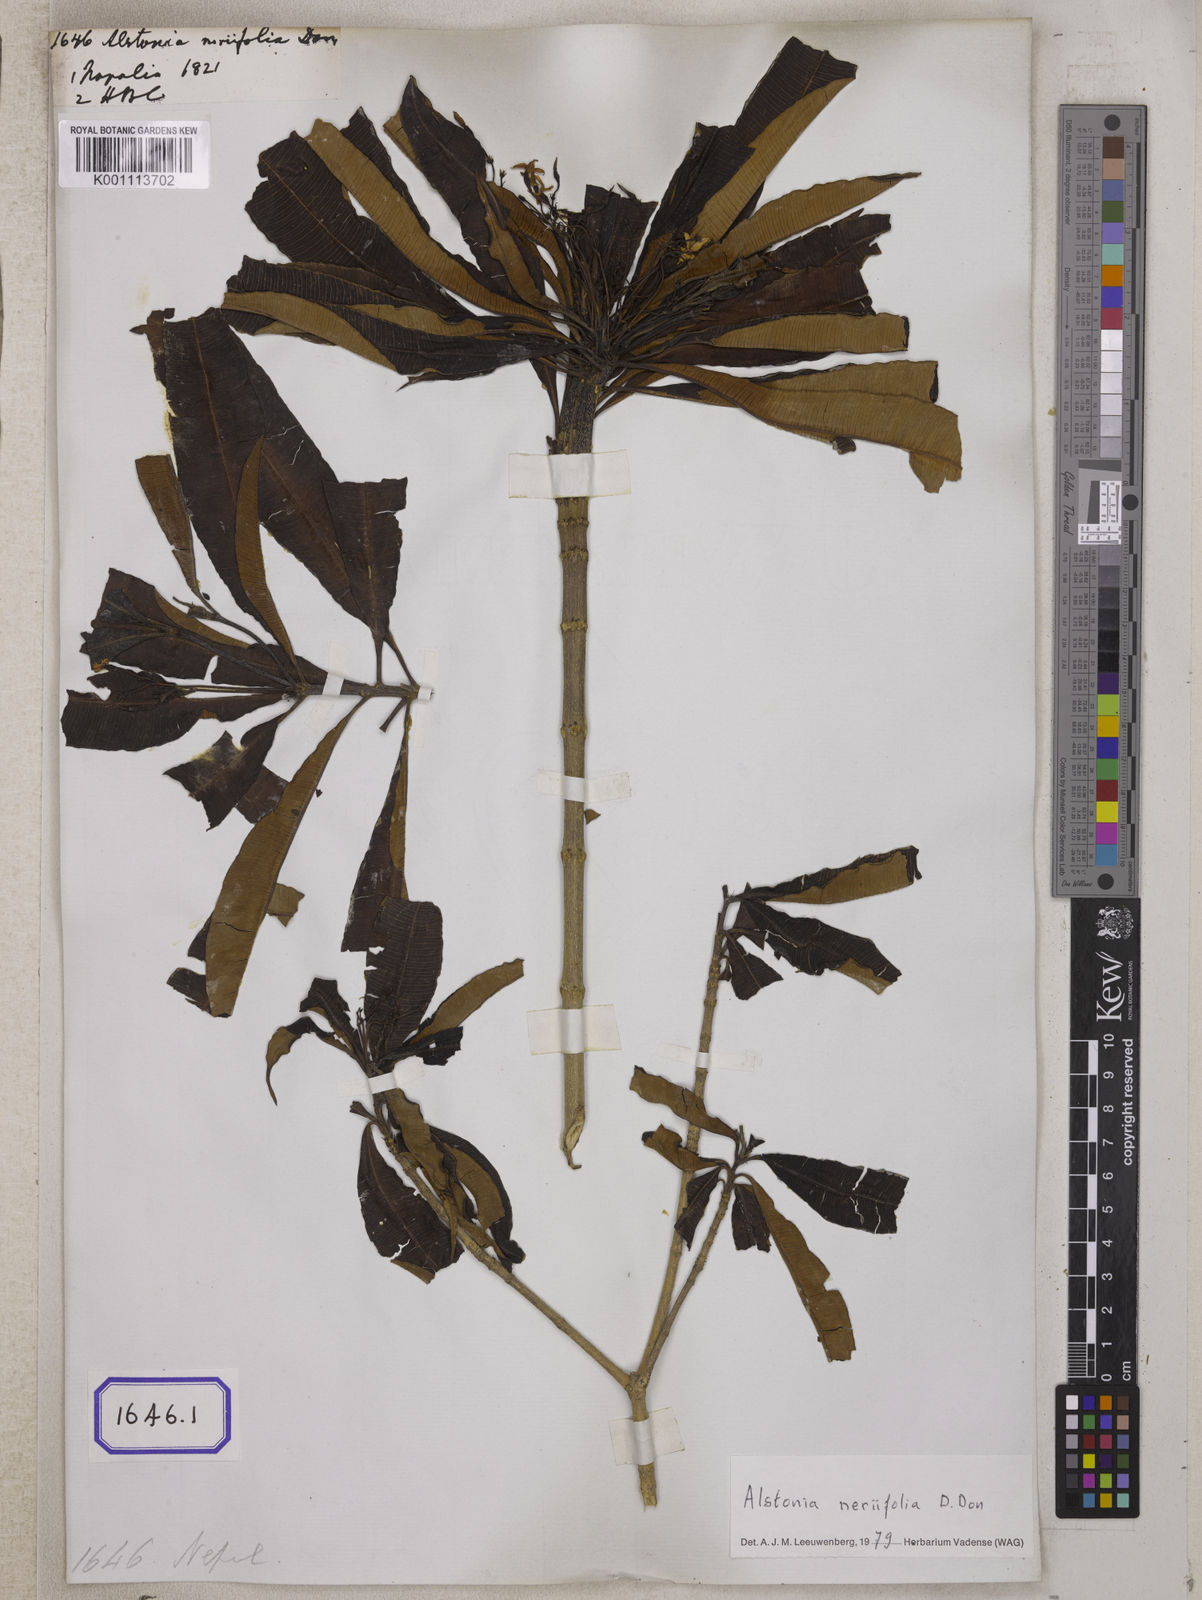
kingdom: Plantae
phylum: Tracheophyta
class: Magnoliopsida
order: Gentianales
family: Apocynaceae
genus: Alstonia
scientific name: Alstonia neriifolia
